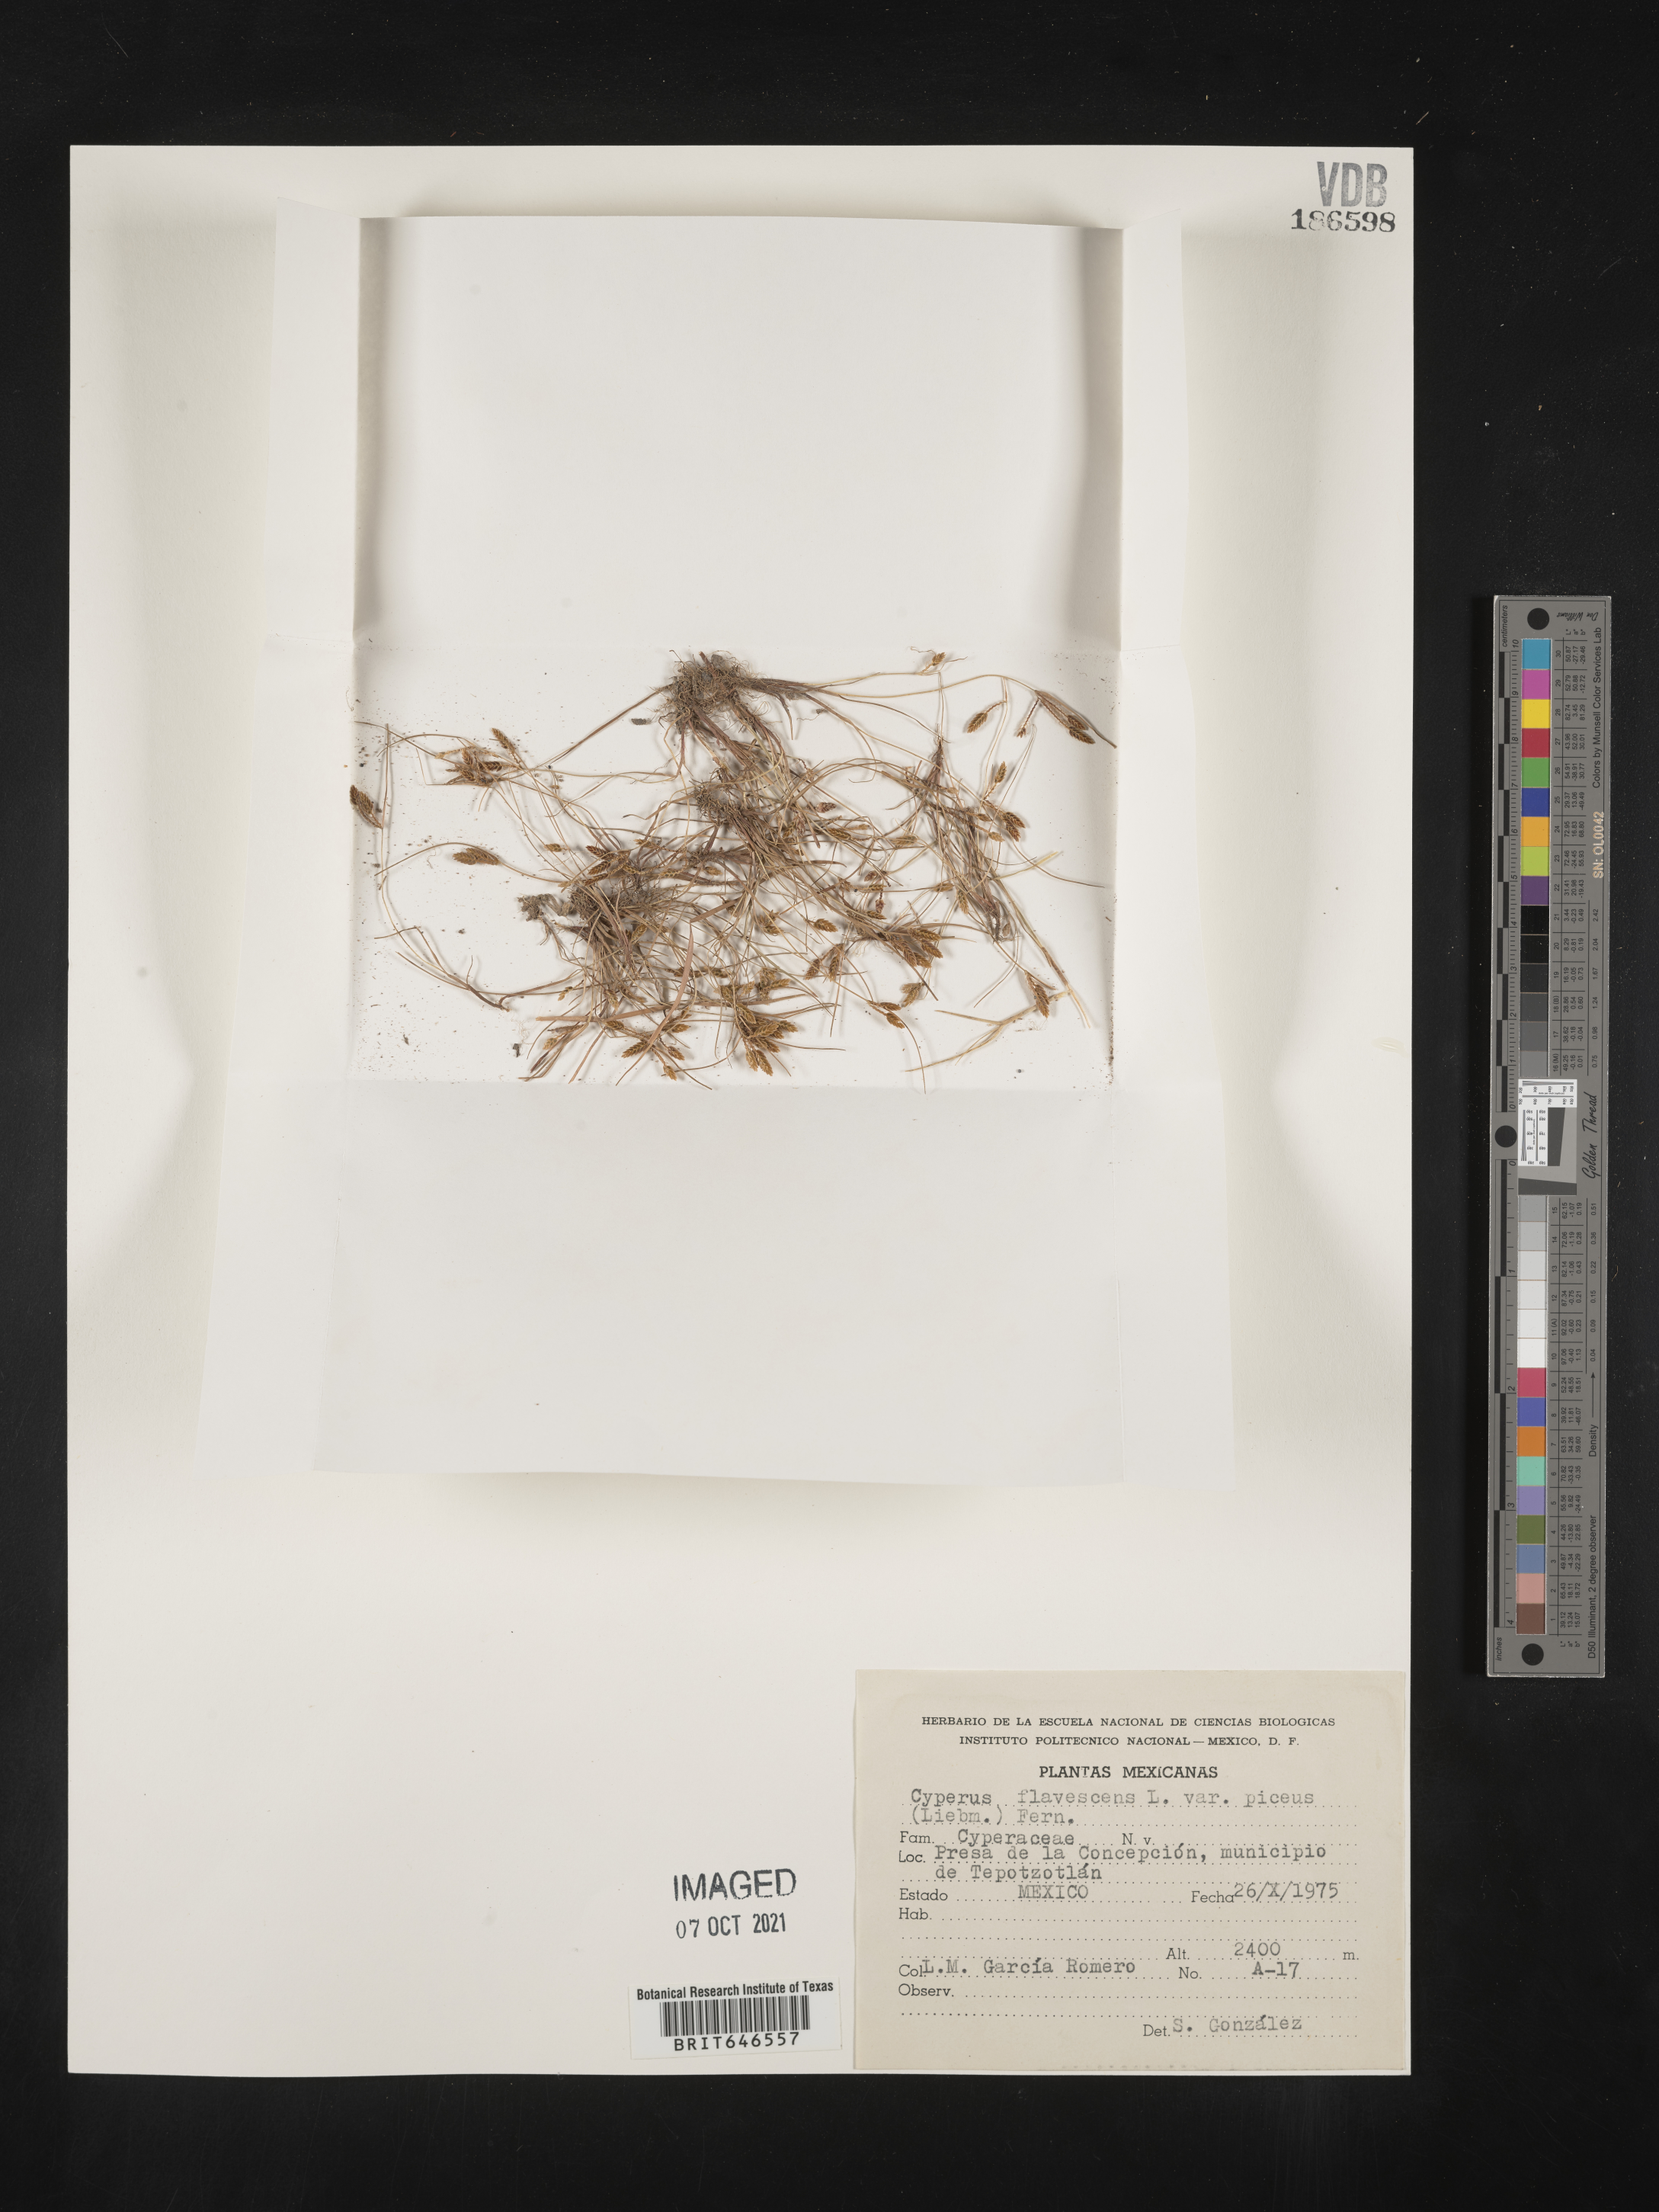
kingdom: Plantae
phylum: Tracheophyta
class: Liliopsida
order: Poales
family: Cyperaceae
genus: Cyperus
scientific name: Cyperus
